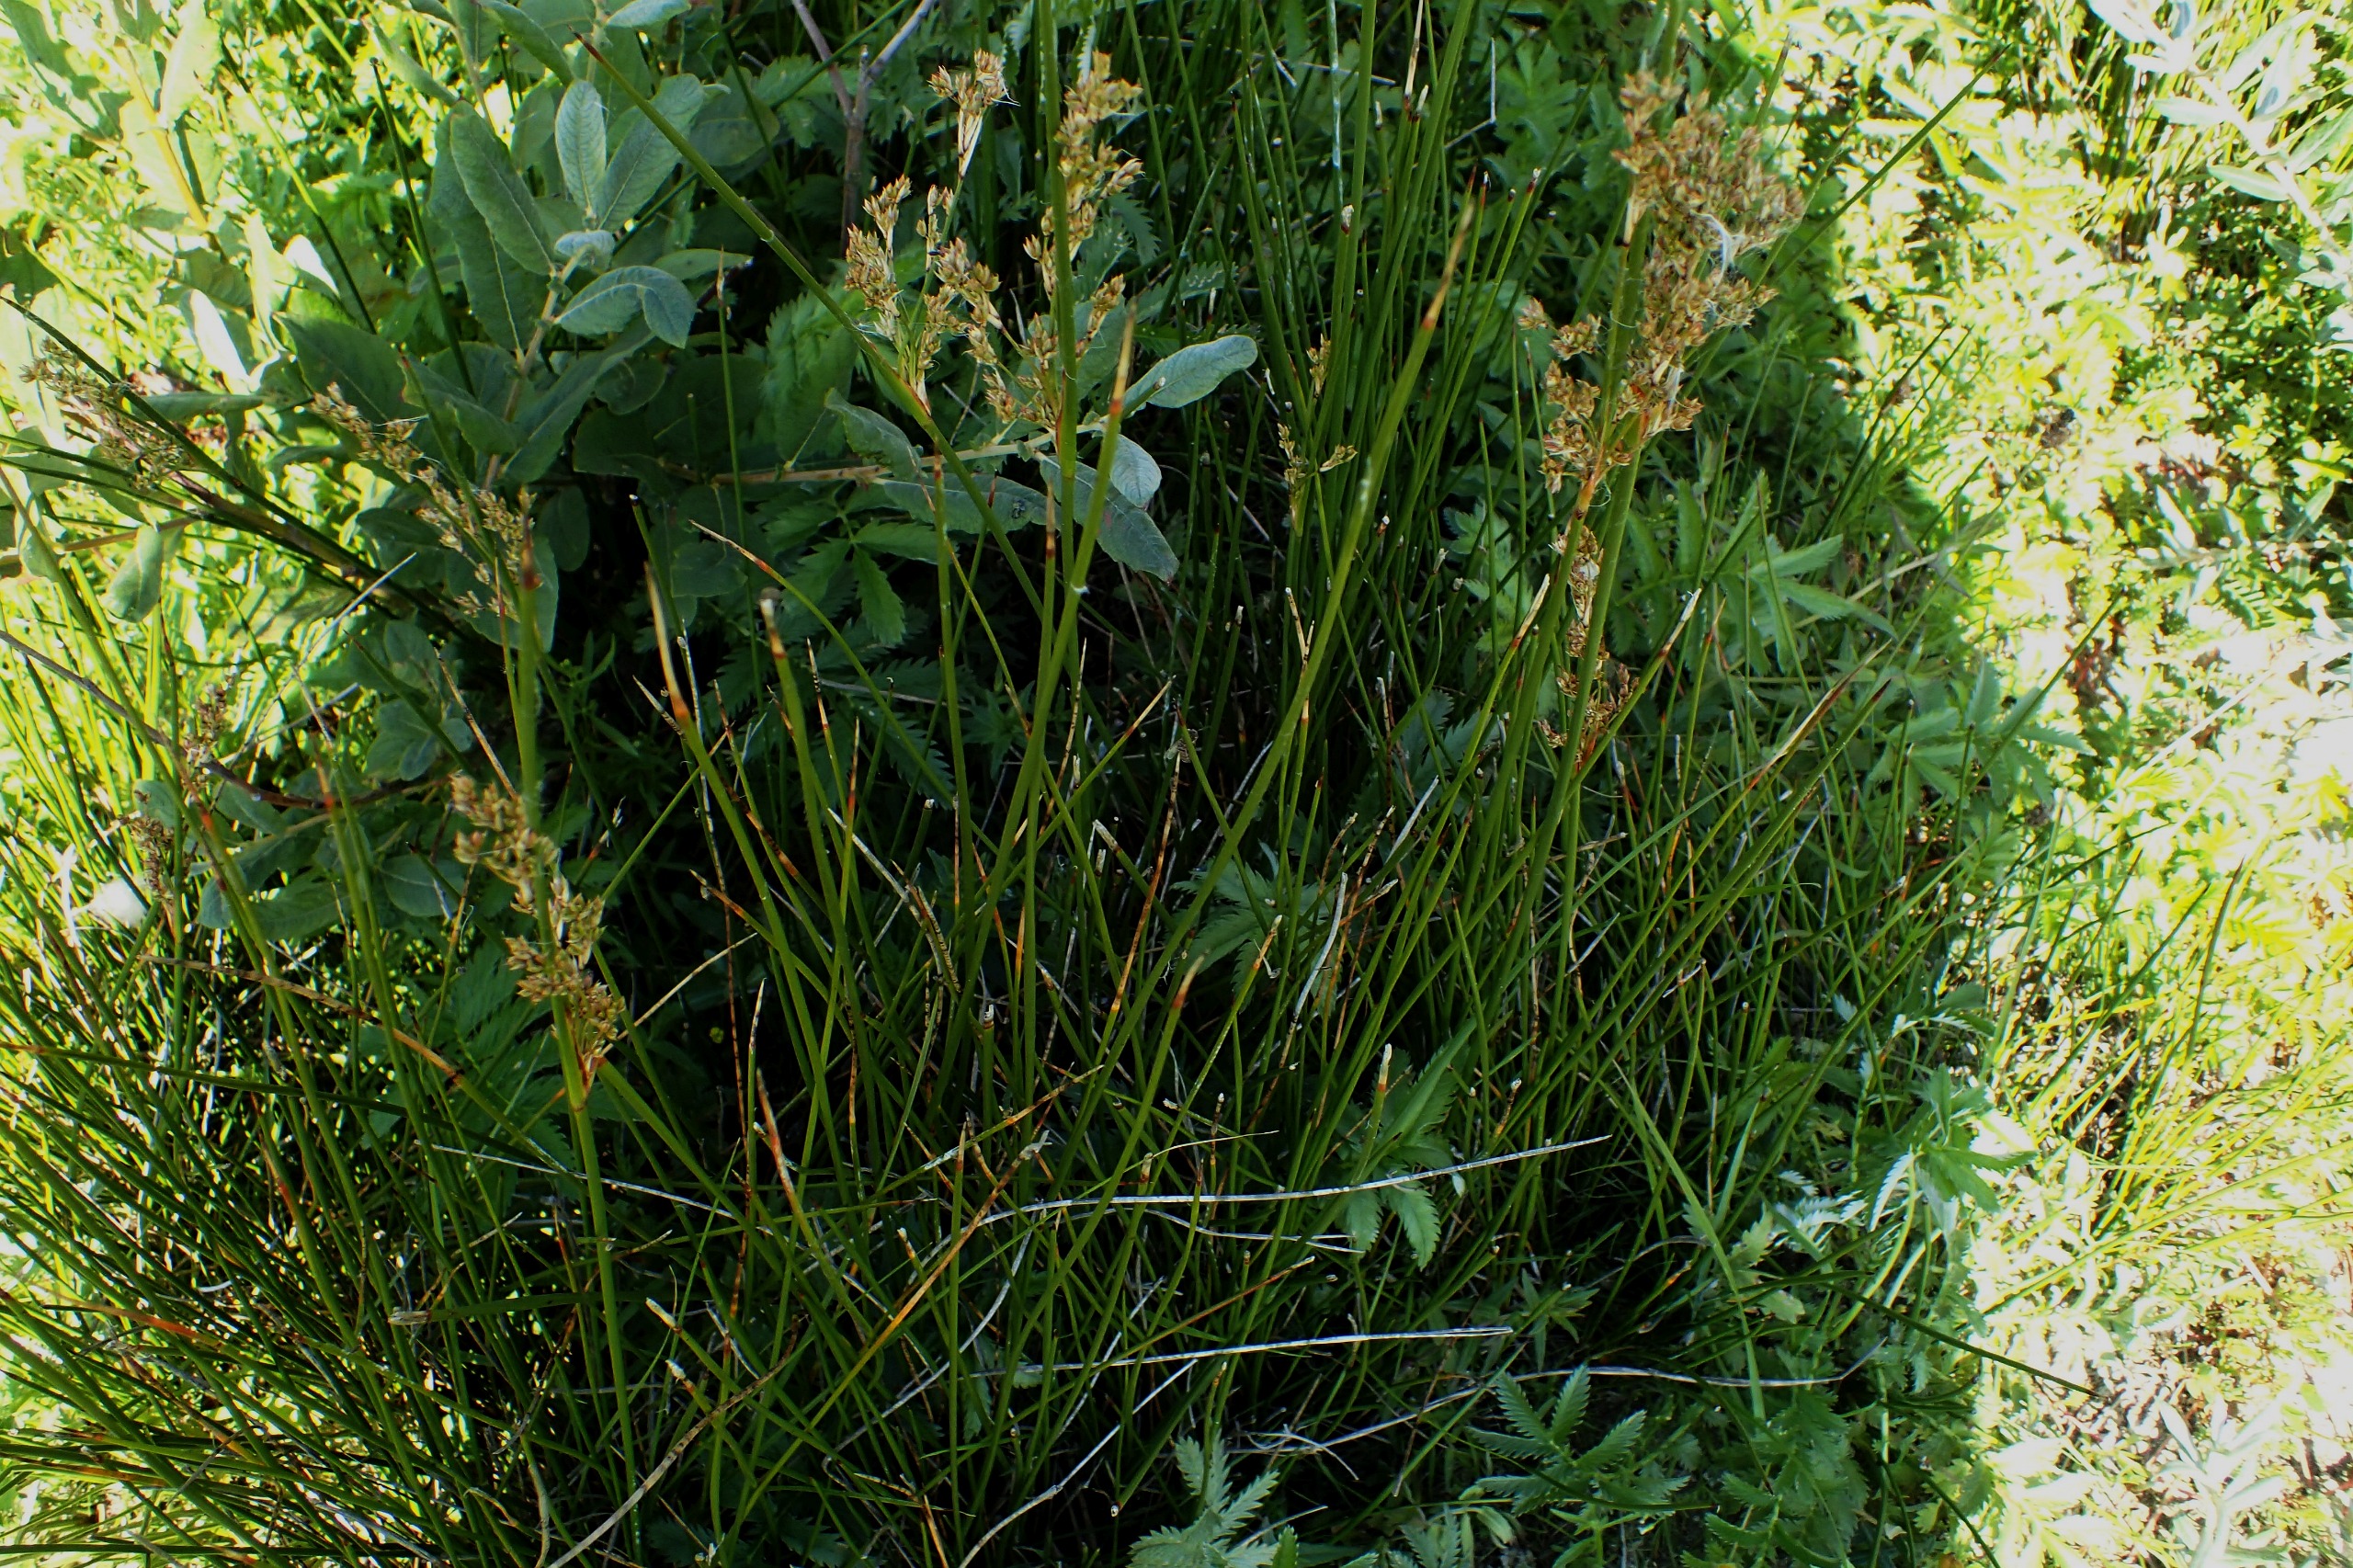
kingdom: Plantae
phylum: Tracheophyta
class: Liliopsida
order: Poales
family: Juncaceae
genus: Juncus
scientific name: Juncus maritimus
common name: Strand-siv
